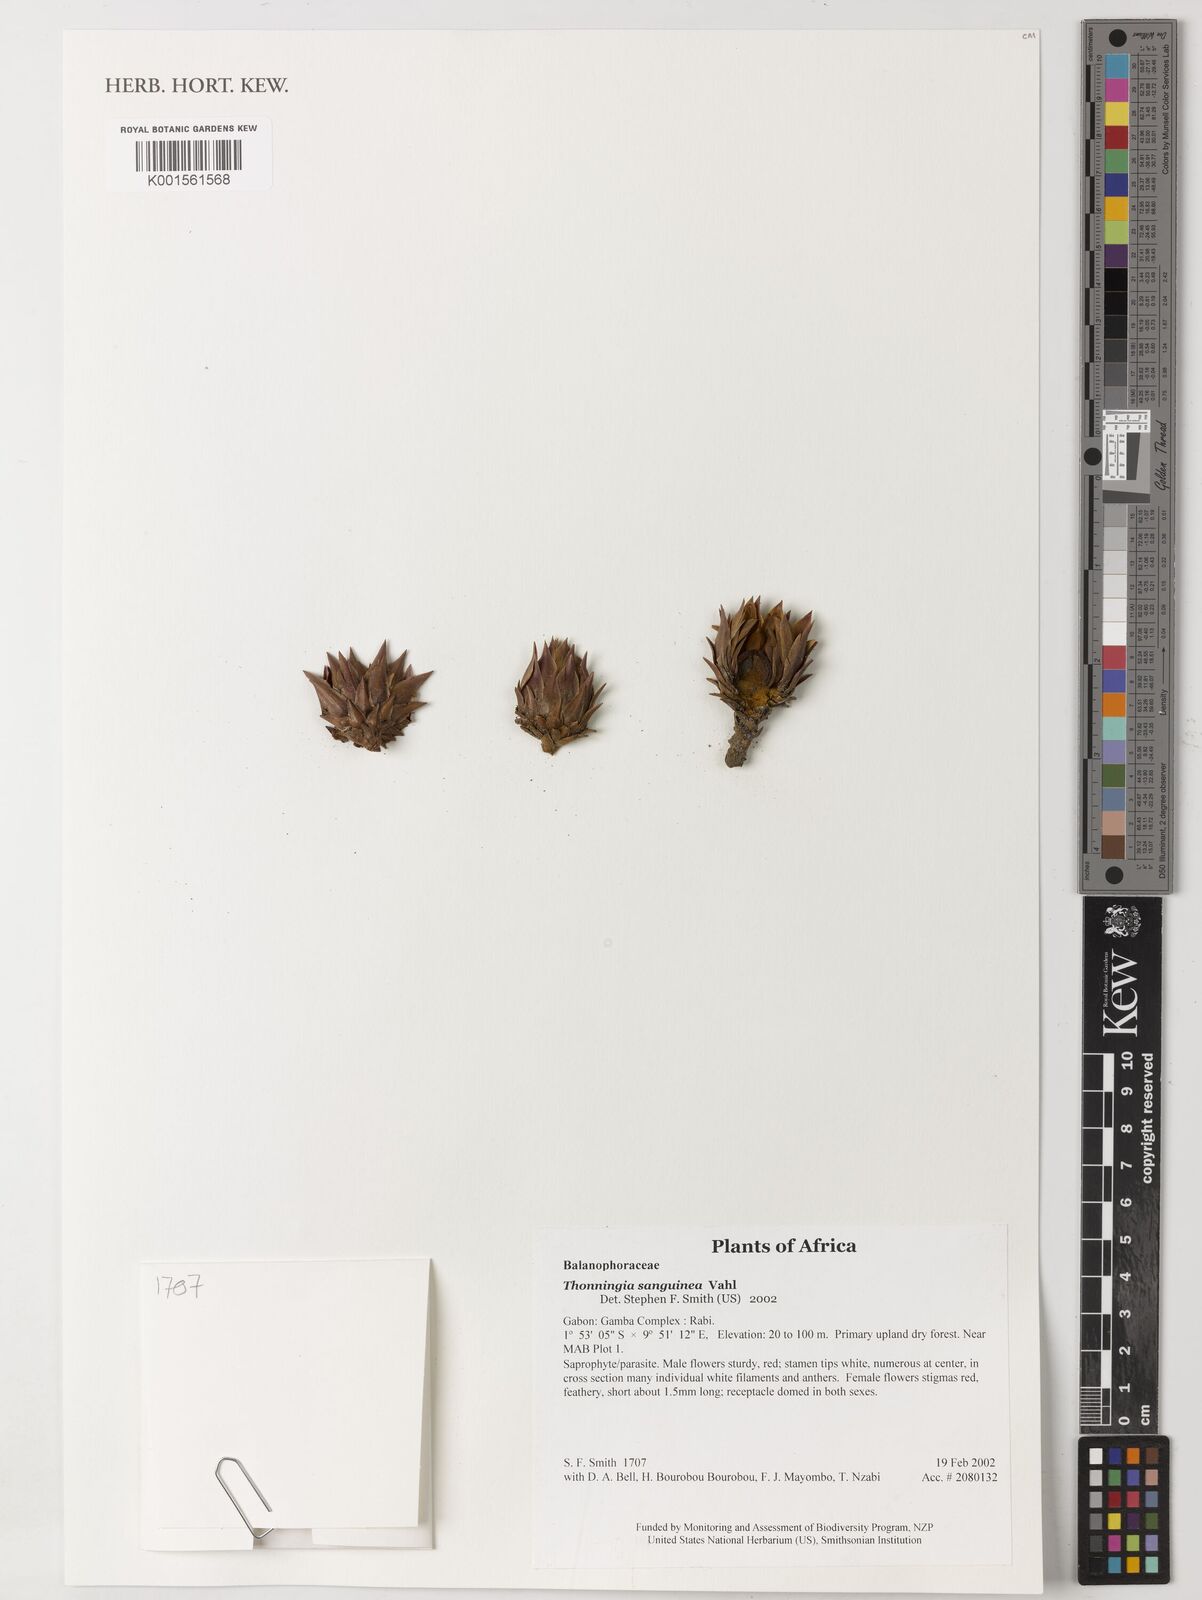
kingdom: Plantae
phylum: Tracheophyta
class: Magnoliopsida
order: Santalales
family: Balanophoraceae
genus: Thonningia
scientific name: Thonningia sanguinea
